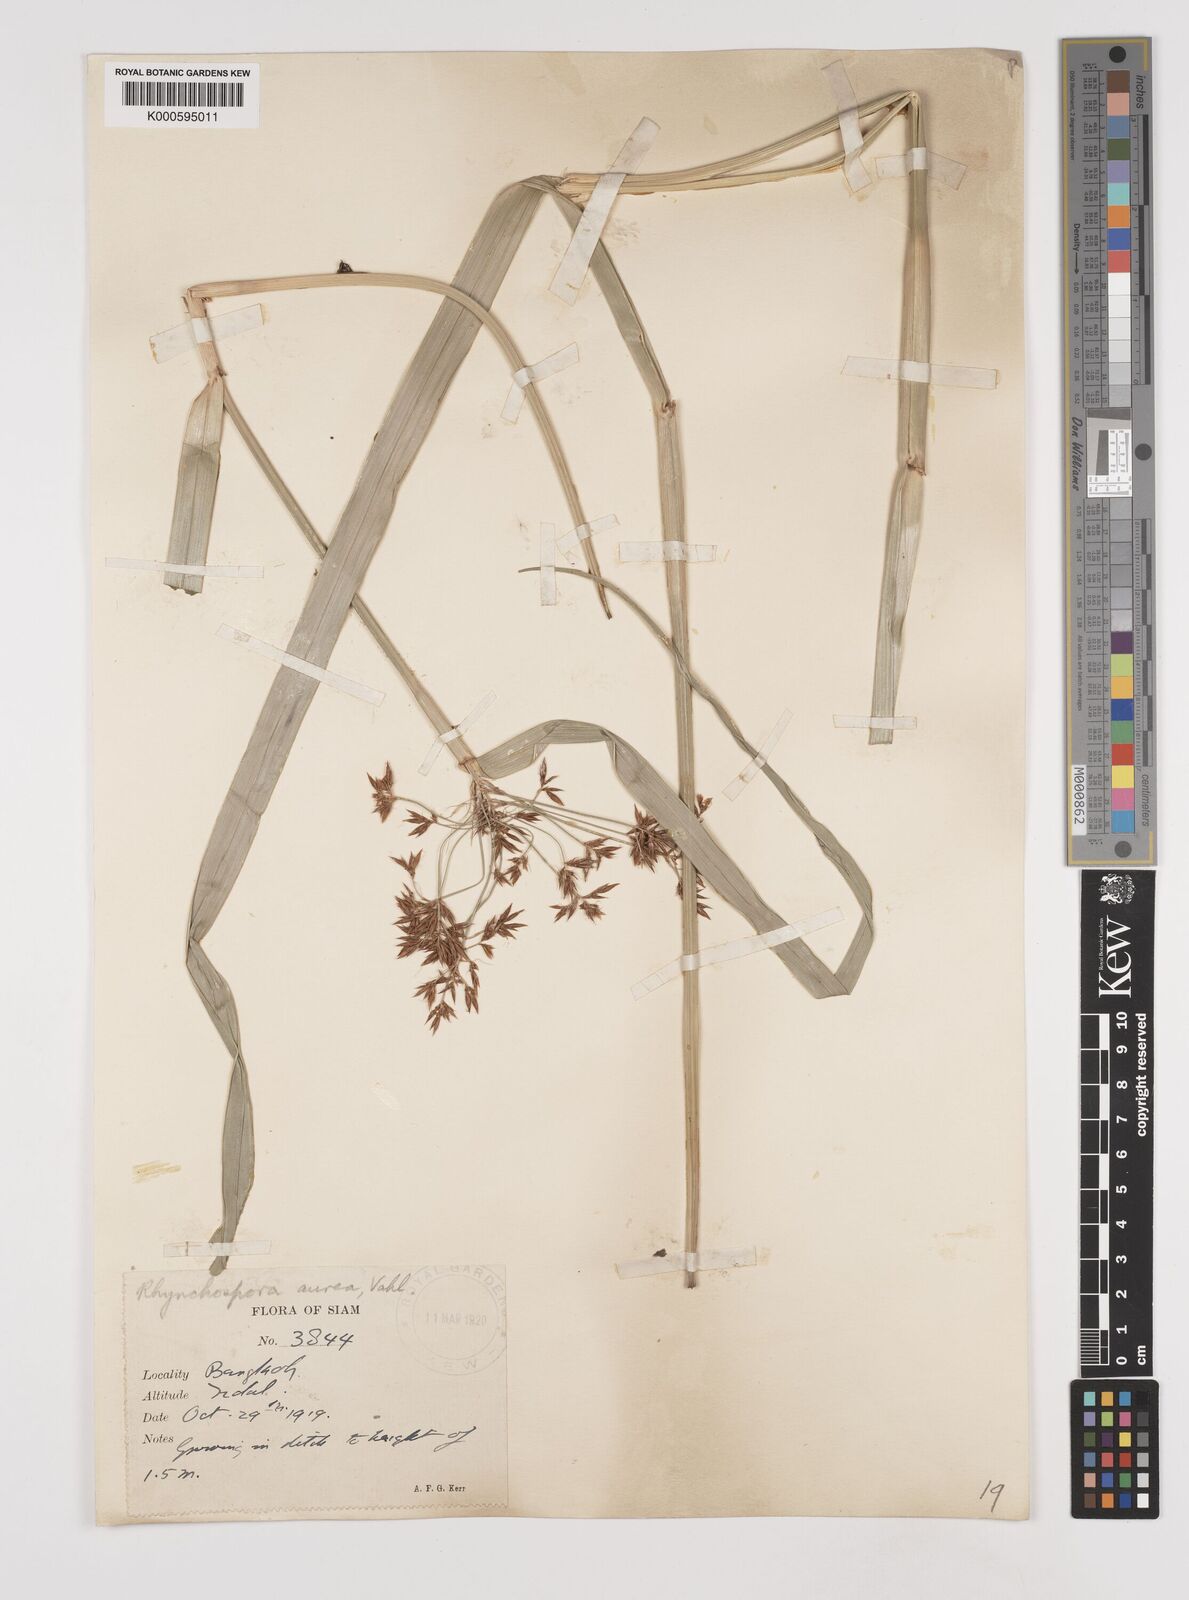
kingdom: Plantae
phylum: Tracheophyta
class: Liliopsida
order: Poales
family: Cyperaceae
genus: Rhynchospora
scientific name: Rhynchospora corymbosa
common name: Golden beak sedge
